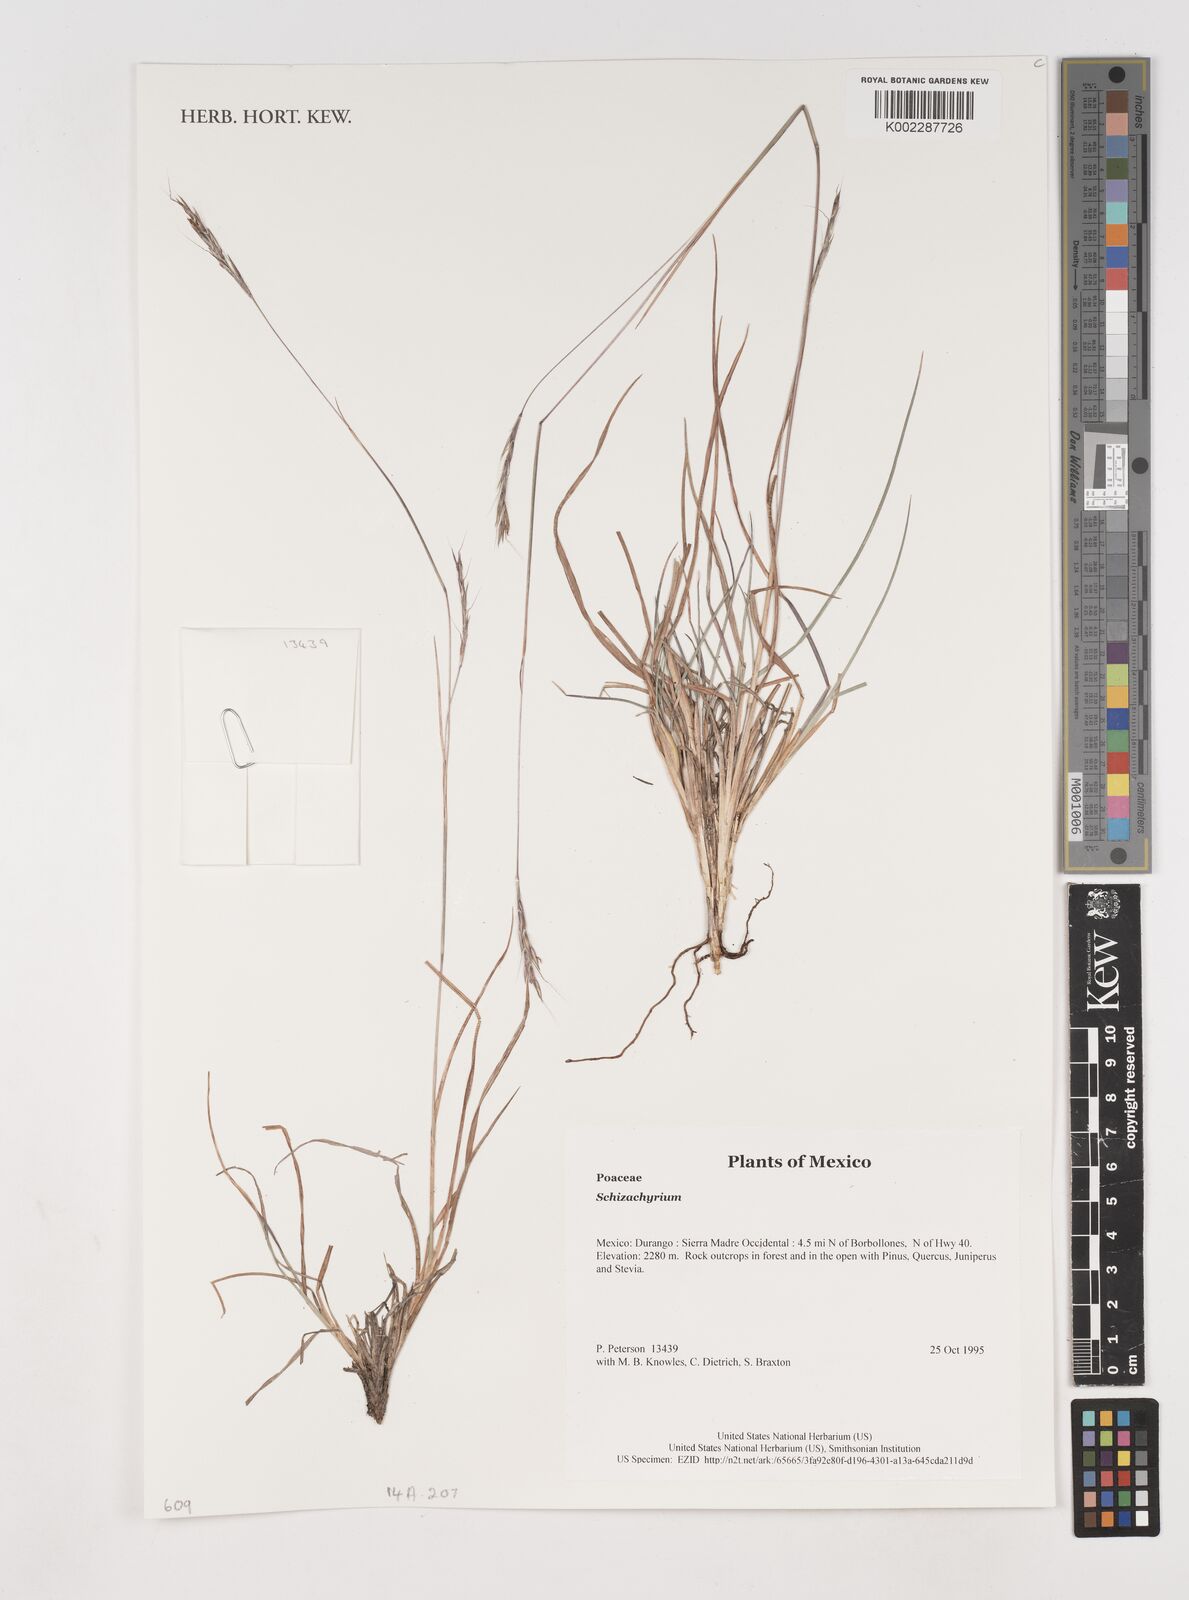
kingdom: Plantae
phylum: Tracheophyta
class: Liliopsida
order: Poales
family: Poaceae
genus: Schizachyrium
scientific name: Schizachyrium
